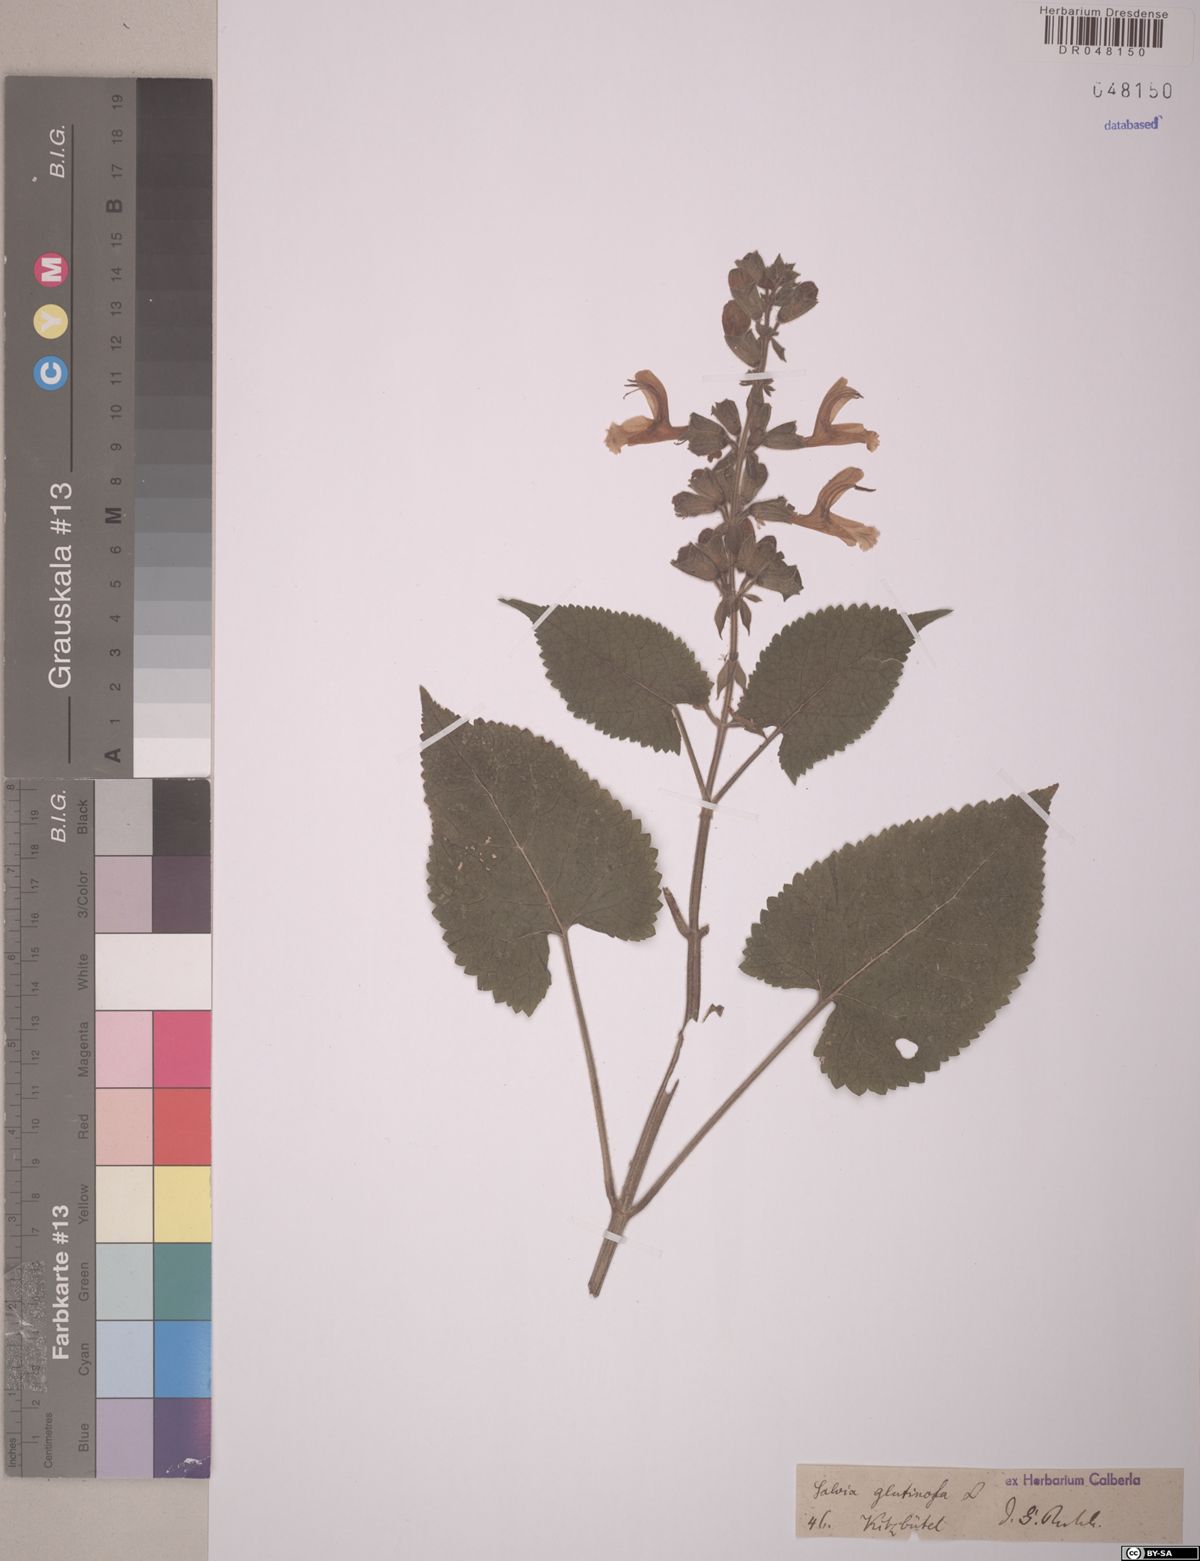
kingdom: Plantae
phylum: Tracheophyta
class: Magnoliopsida
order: Lamiales
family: Lamiaceae
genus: Salvia
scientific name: Salvia glutinosa
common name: Sticky clary
